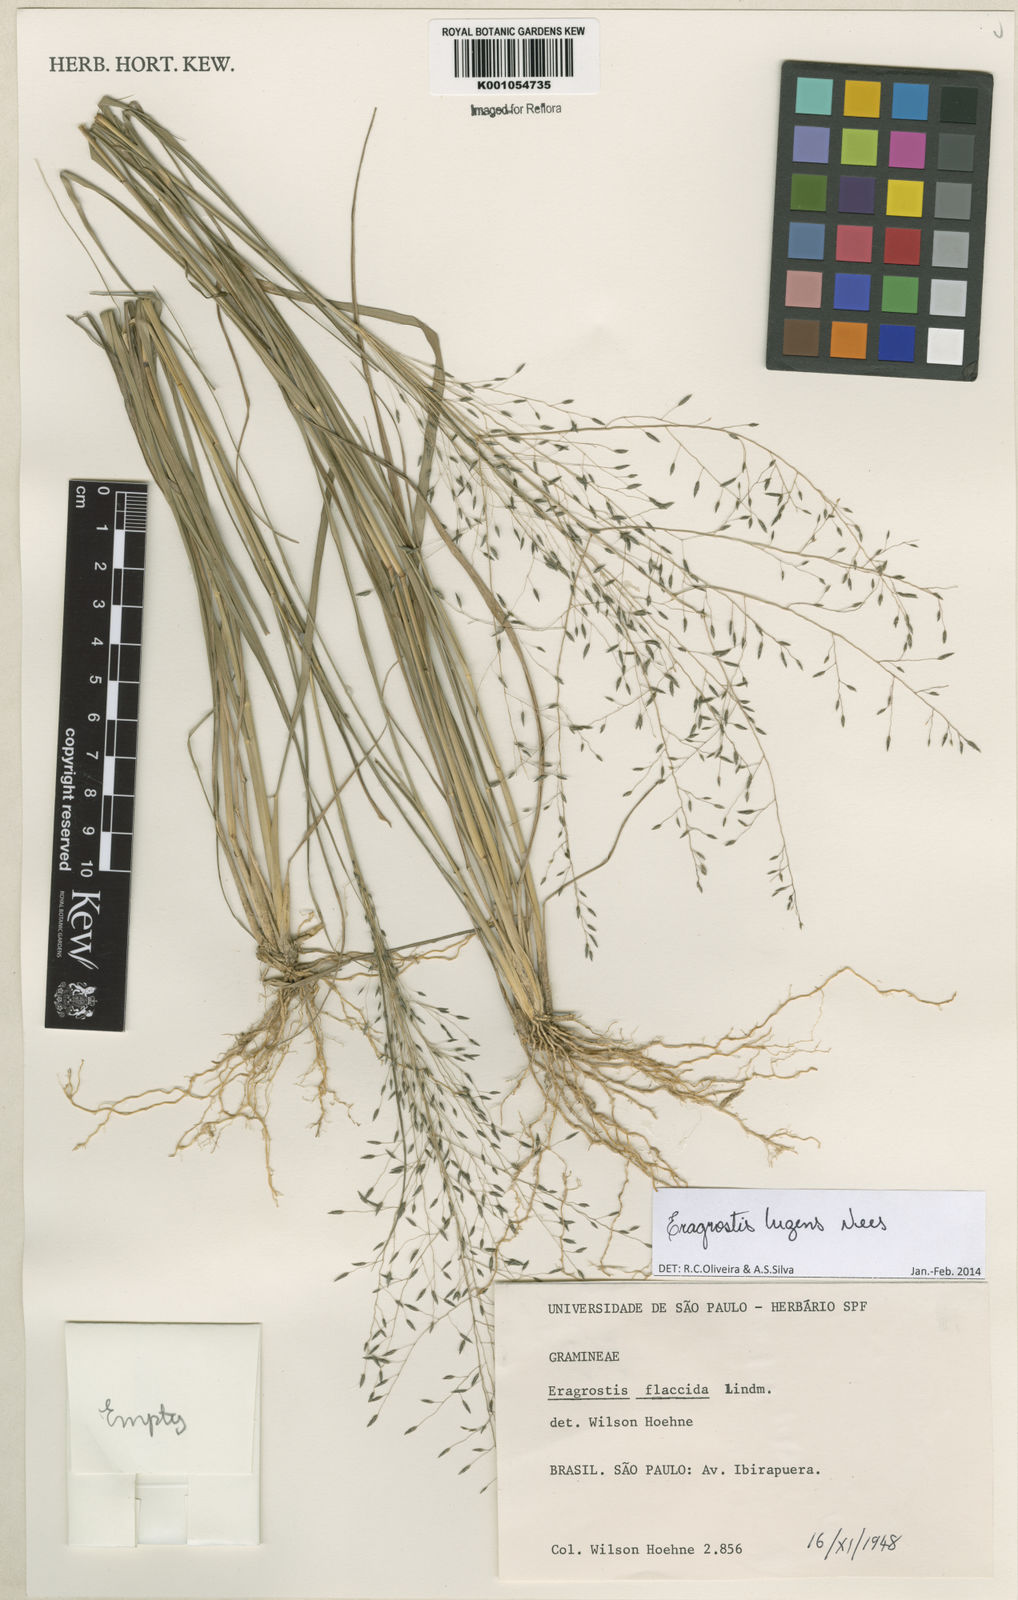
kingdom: Plantae
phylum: Tracheophyta
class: Liliopsida
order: Poales
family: Poaceae
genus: Eragrostis
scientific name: Eragrostis lugens
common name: Mourning love grass
